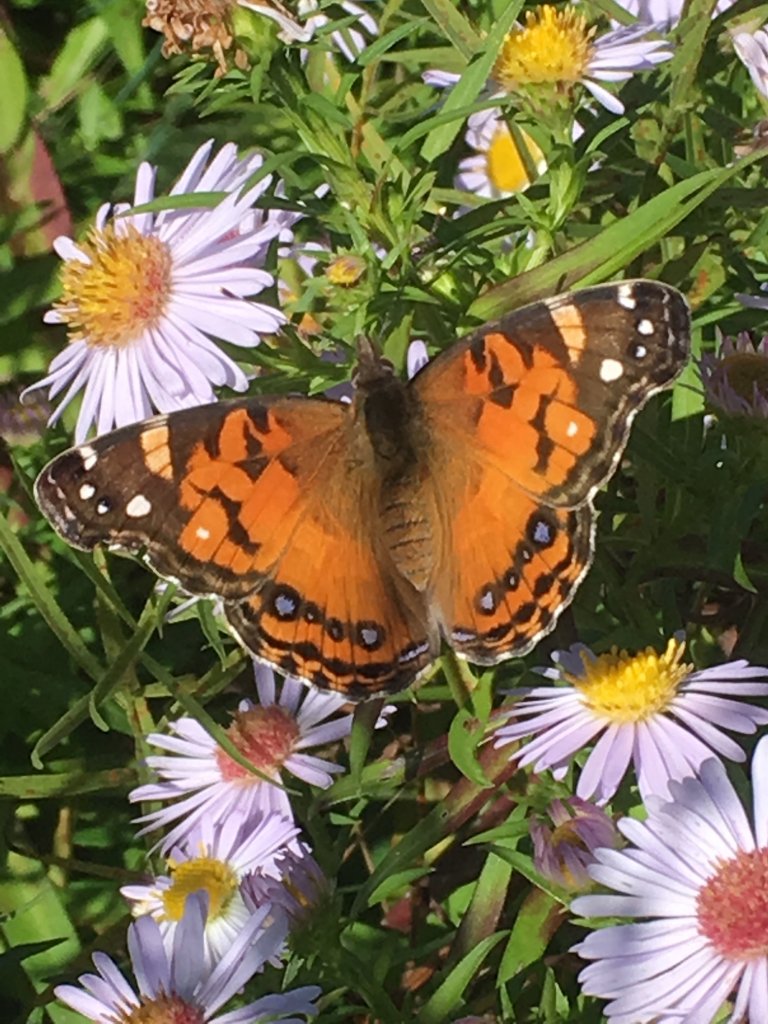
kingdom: Animalia
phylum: Arthropoda
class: Insecta
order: Lepidoptera
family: Nymphalidae
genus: Vanessa
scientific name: Vanessa virginiensis
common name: American Lady
